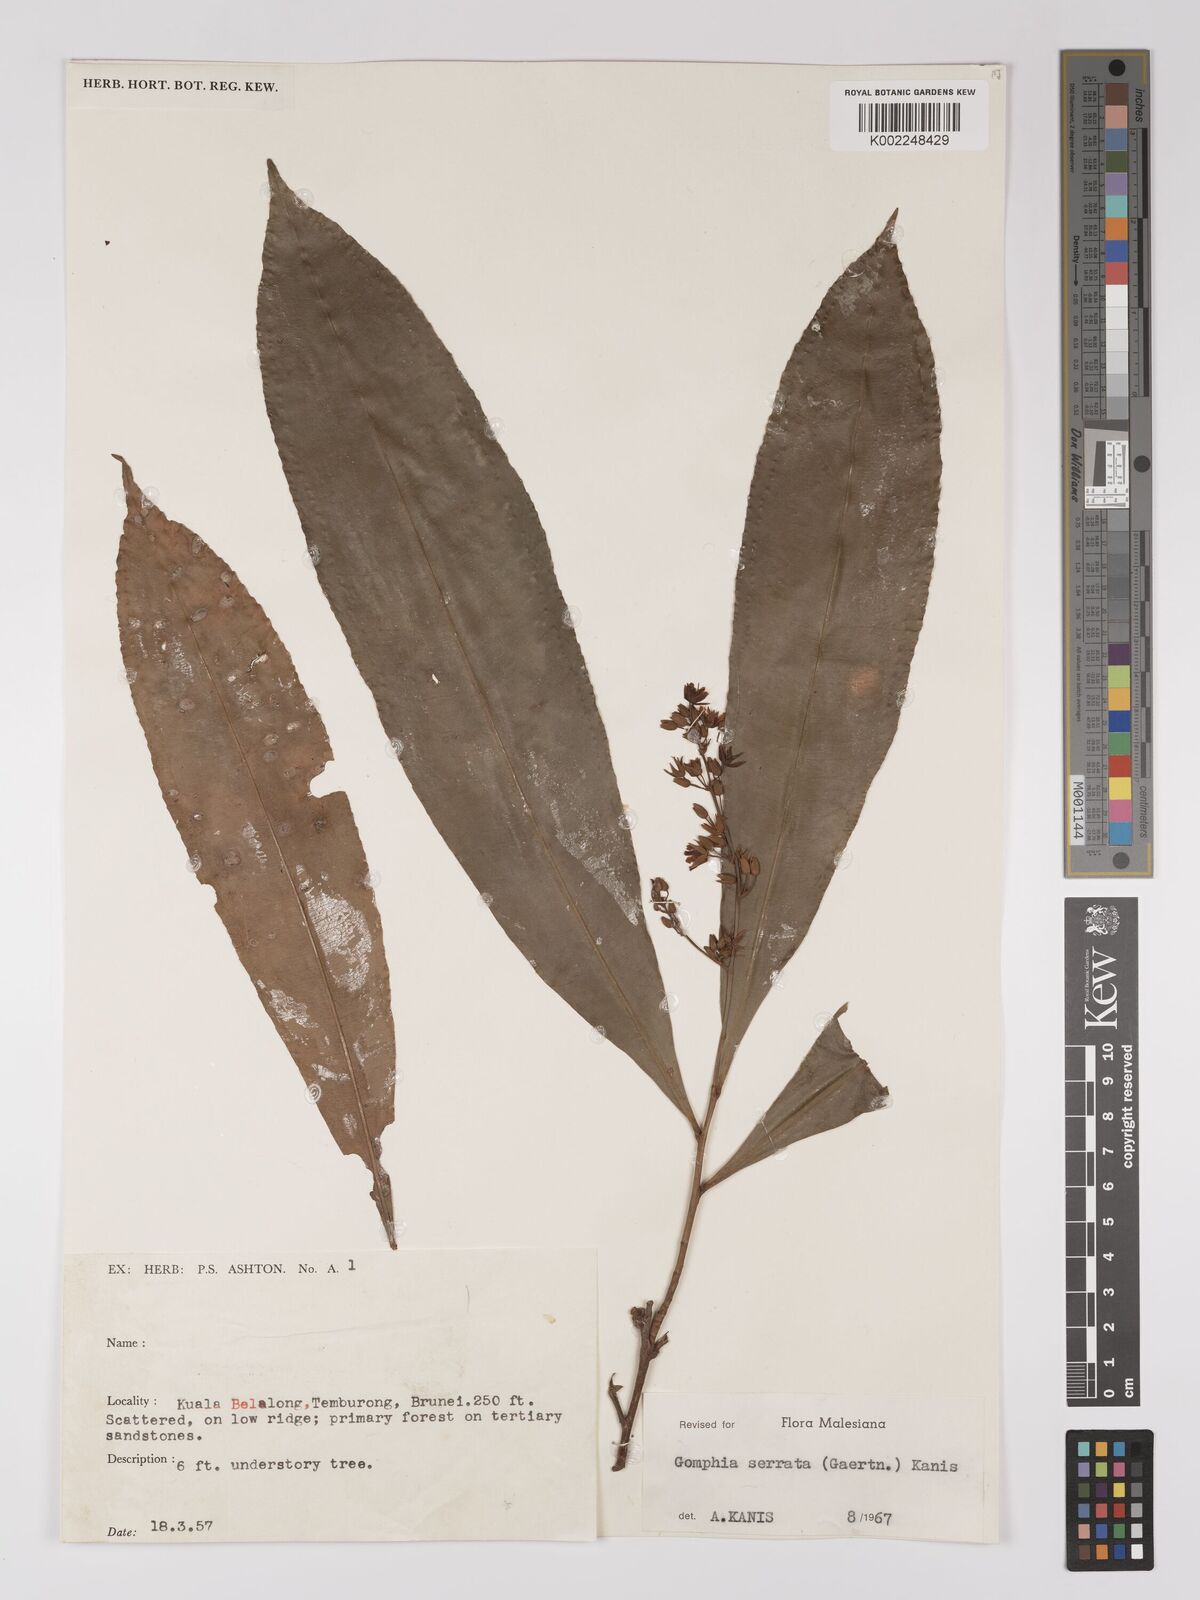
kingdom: Plantae
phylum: Tracheophyta
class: Magnoliopsida
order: Malpighiales
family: Ochnaceae
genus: Gomphia
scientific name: Gomphia serrata
